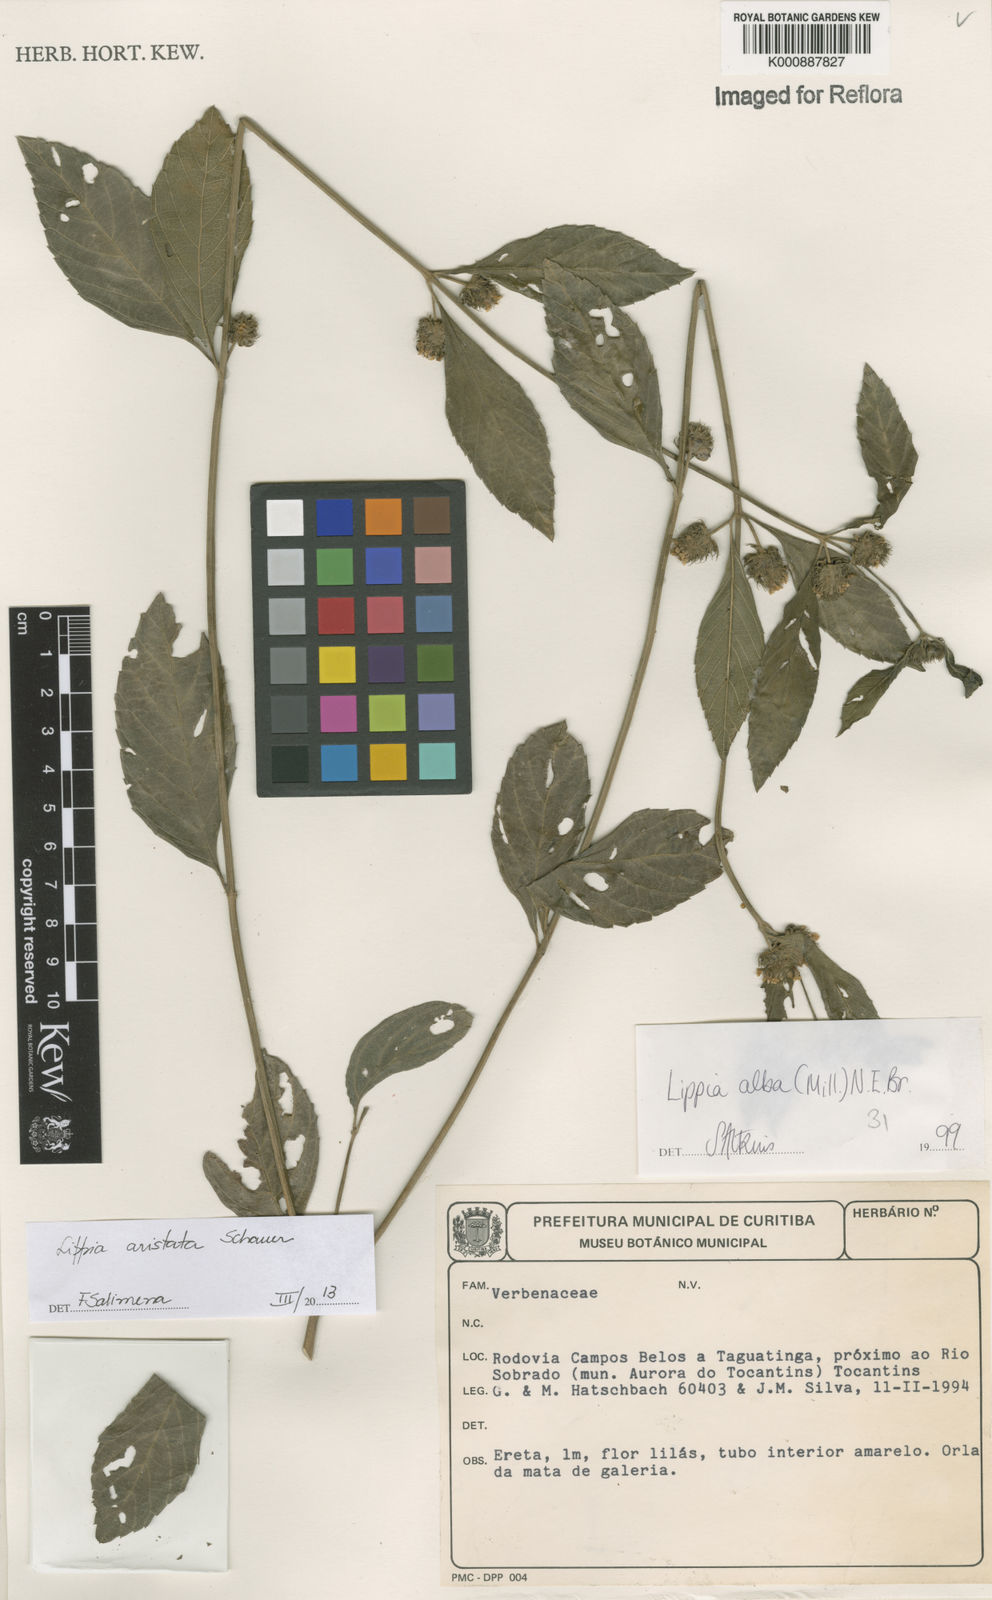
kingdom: Plantae
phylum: Tracheophyta
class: Magnoliopsida
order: Lamiales
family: Verbenaceae
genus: Lippia
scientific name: Lippia aristata
